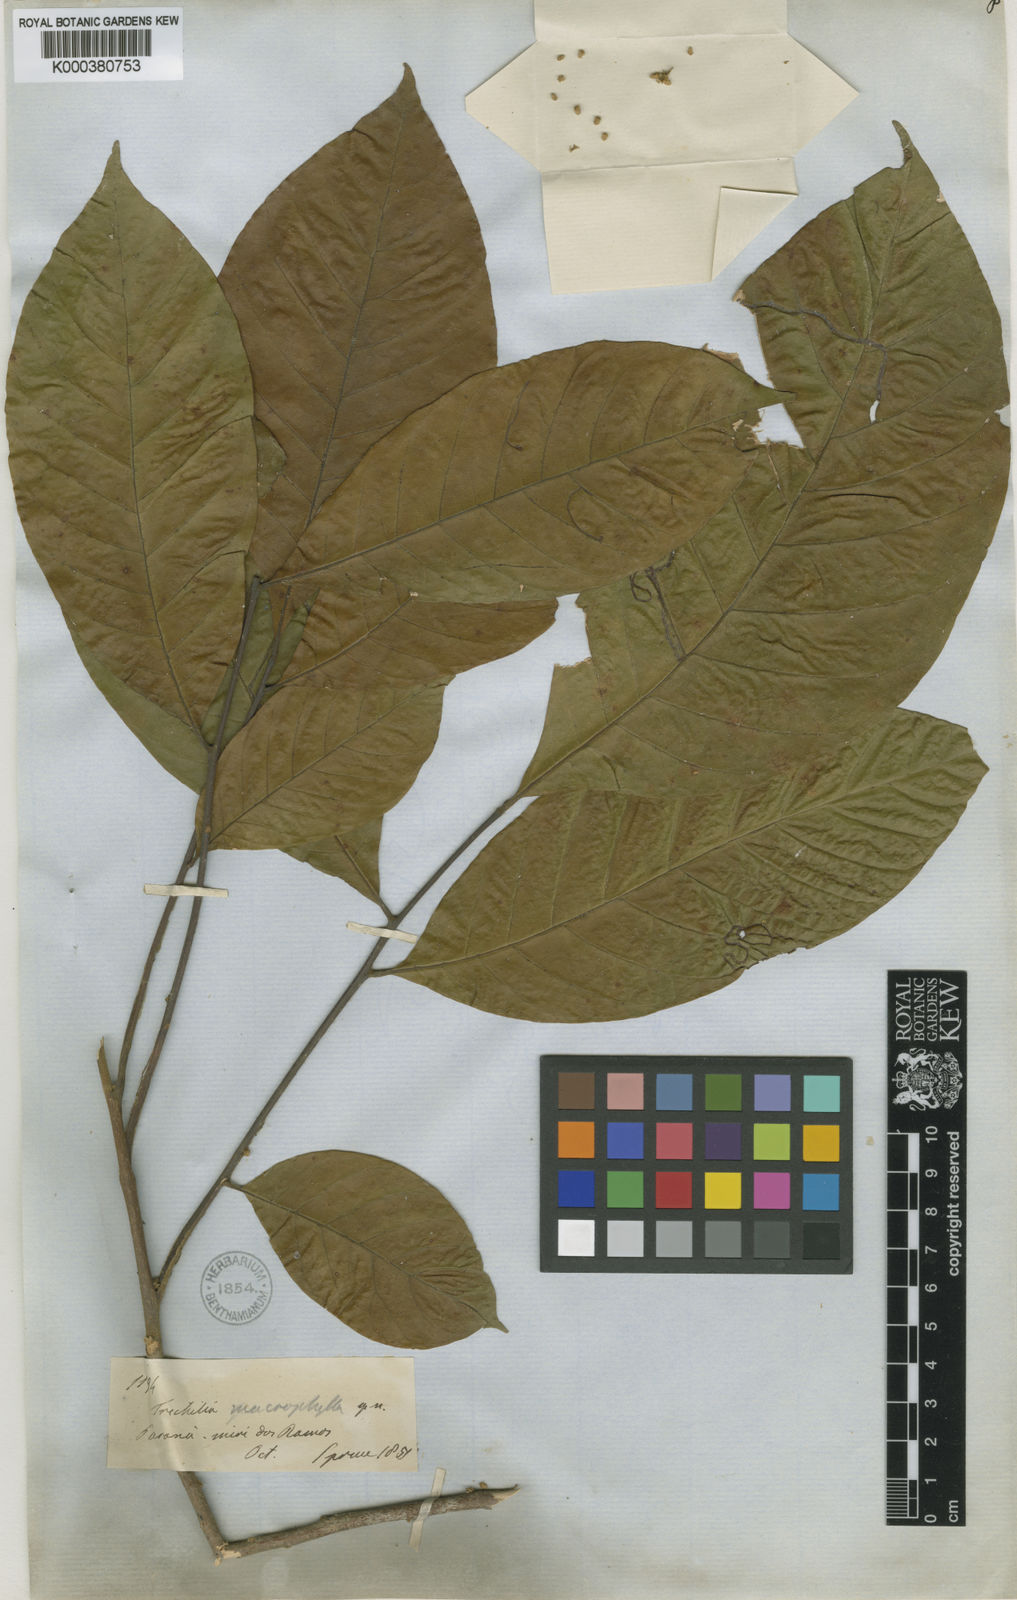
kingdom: Plantae
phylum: Tracheophyta
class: Magnoliopsida
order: Sapindales
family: Meliaceae
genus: Trichilia
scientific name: Trichilia pallida
